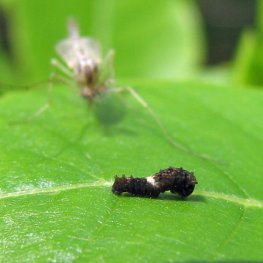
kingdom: Animalia
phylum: Arthropoda
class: Insecta
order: Lepidoptera
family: Papilionidae
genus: Papilio
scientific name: Papilio cresphontes
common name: Eastern Giant Swallowtail
